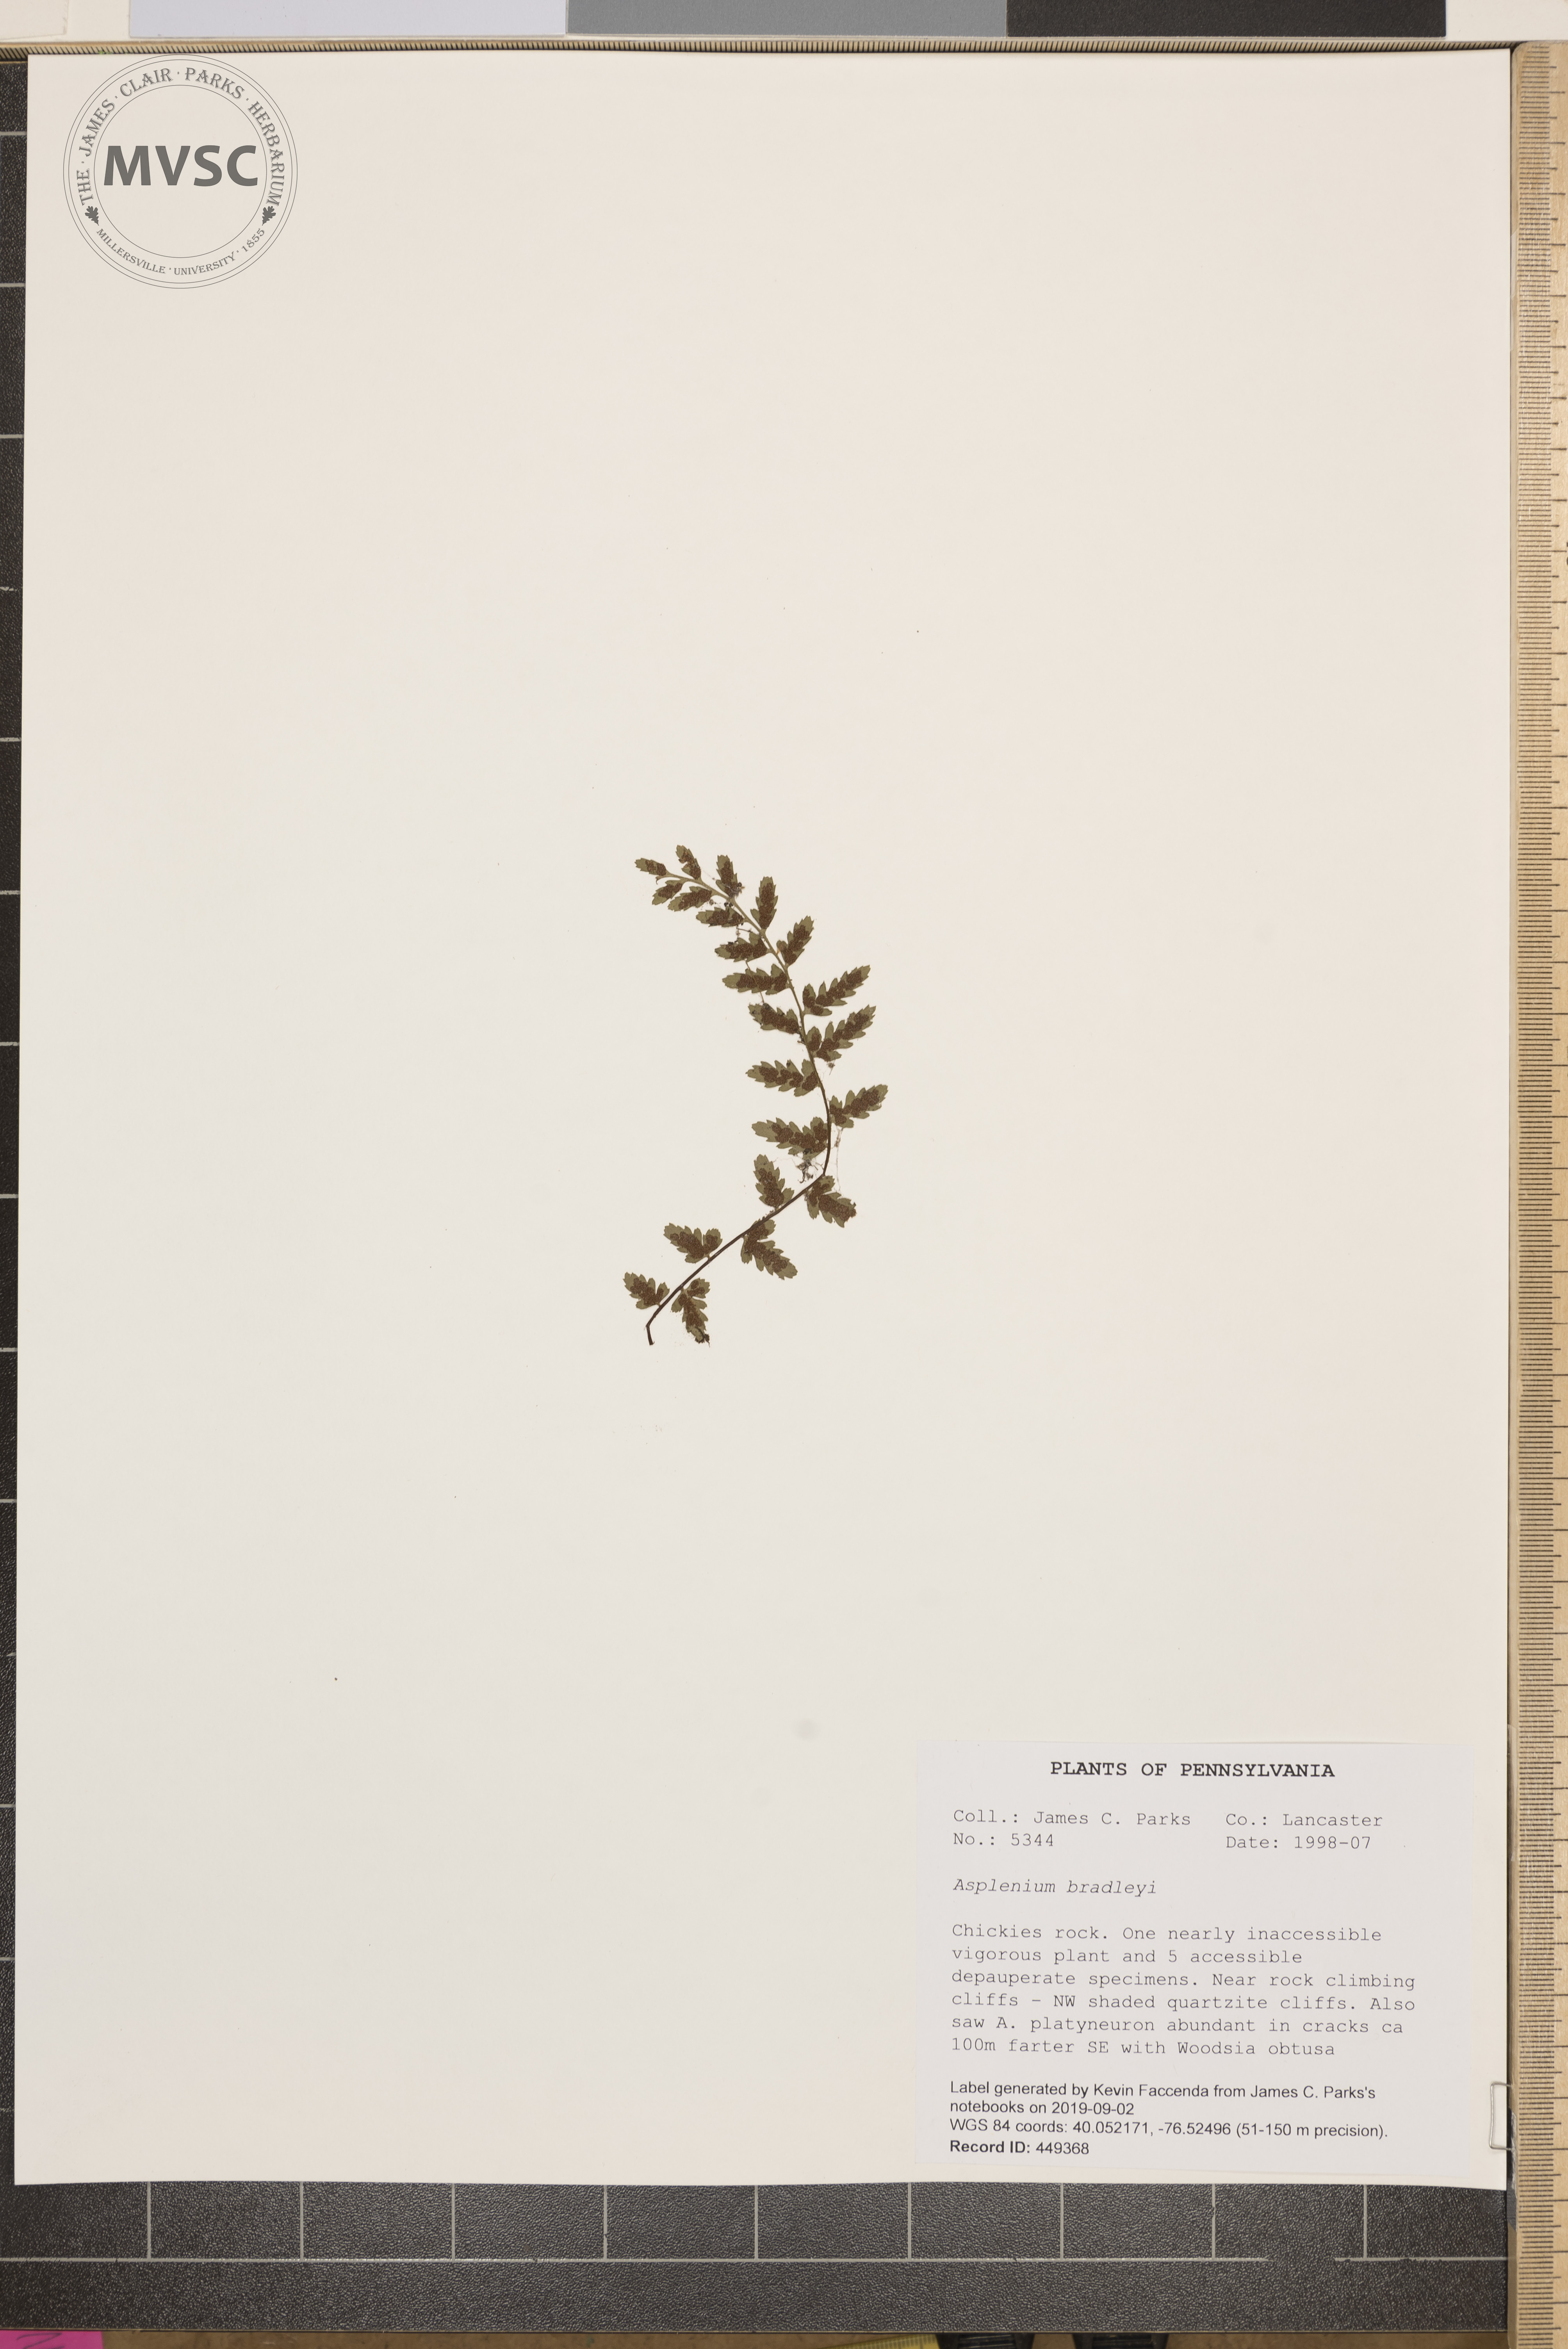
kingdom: Plantae
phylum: Tracheophyta
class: Polypodiopsida
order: Polypodiales
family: Aspleniaceae
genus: Asplenium
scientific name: Asplenium bradleyi
